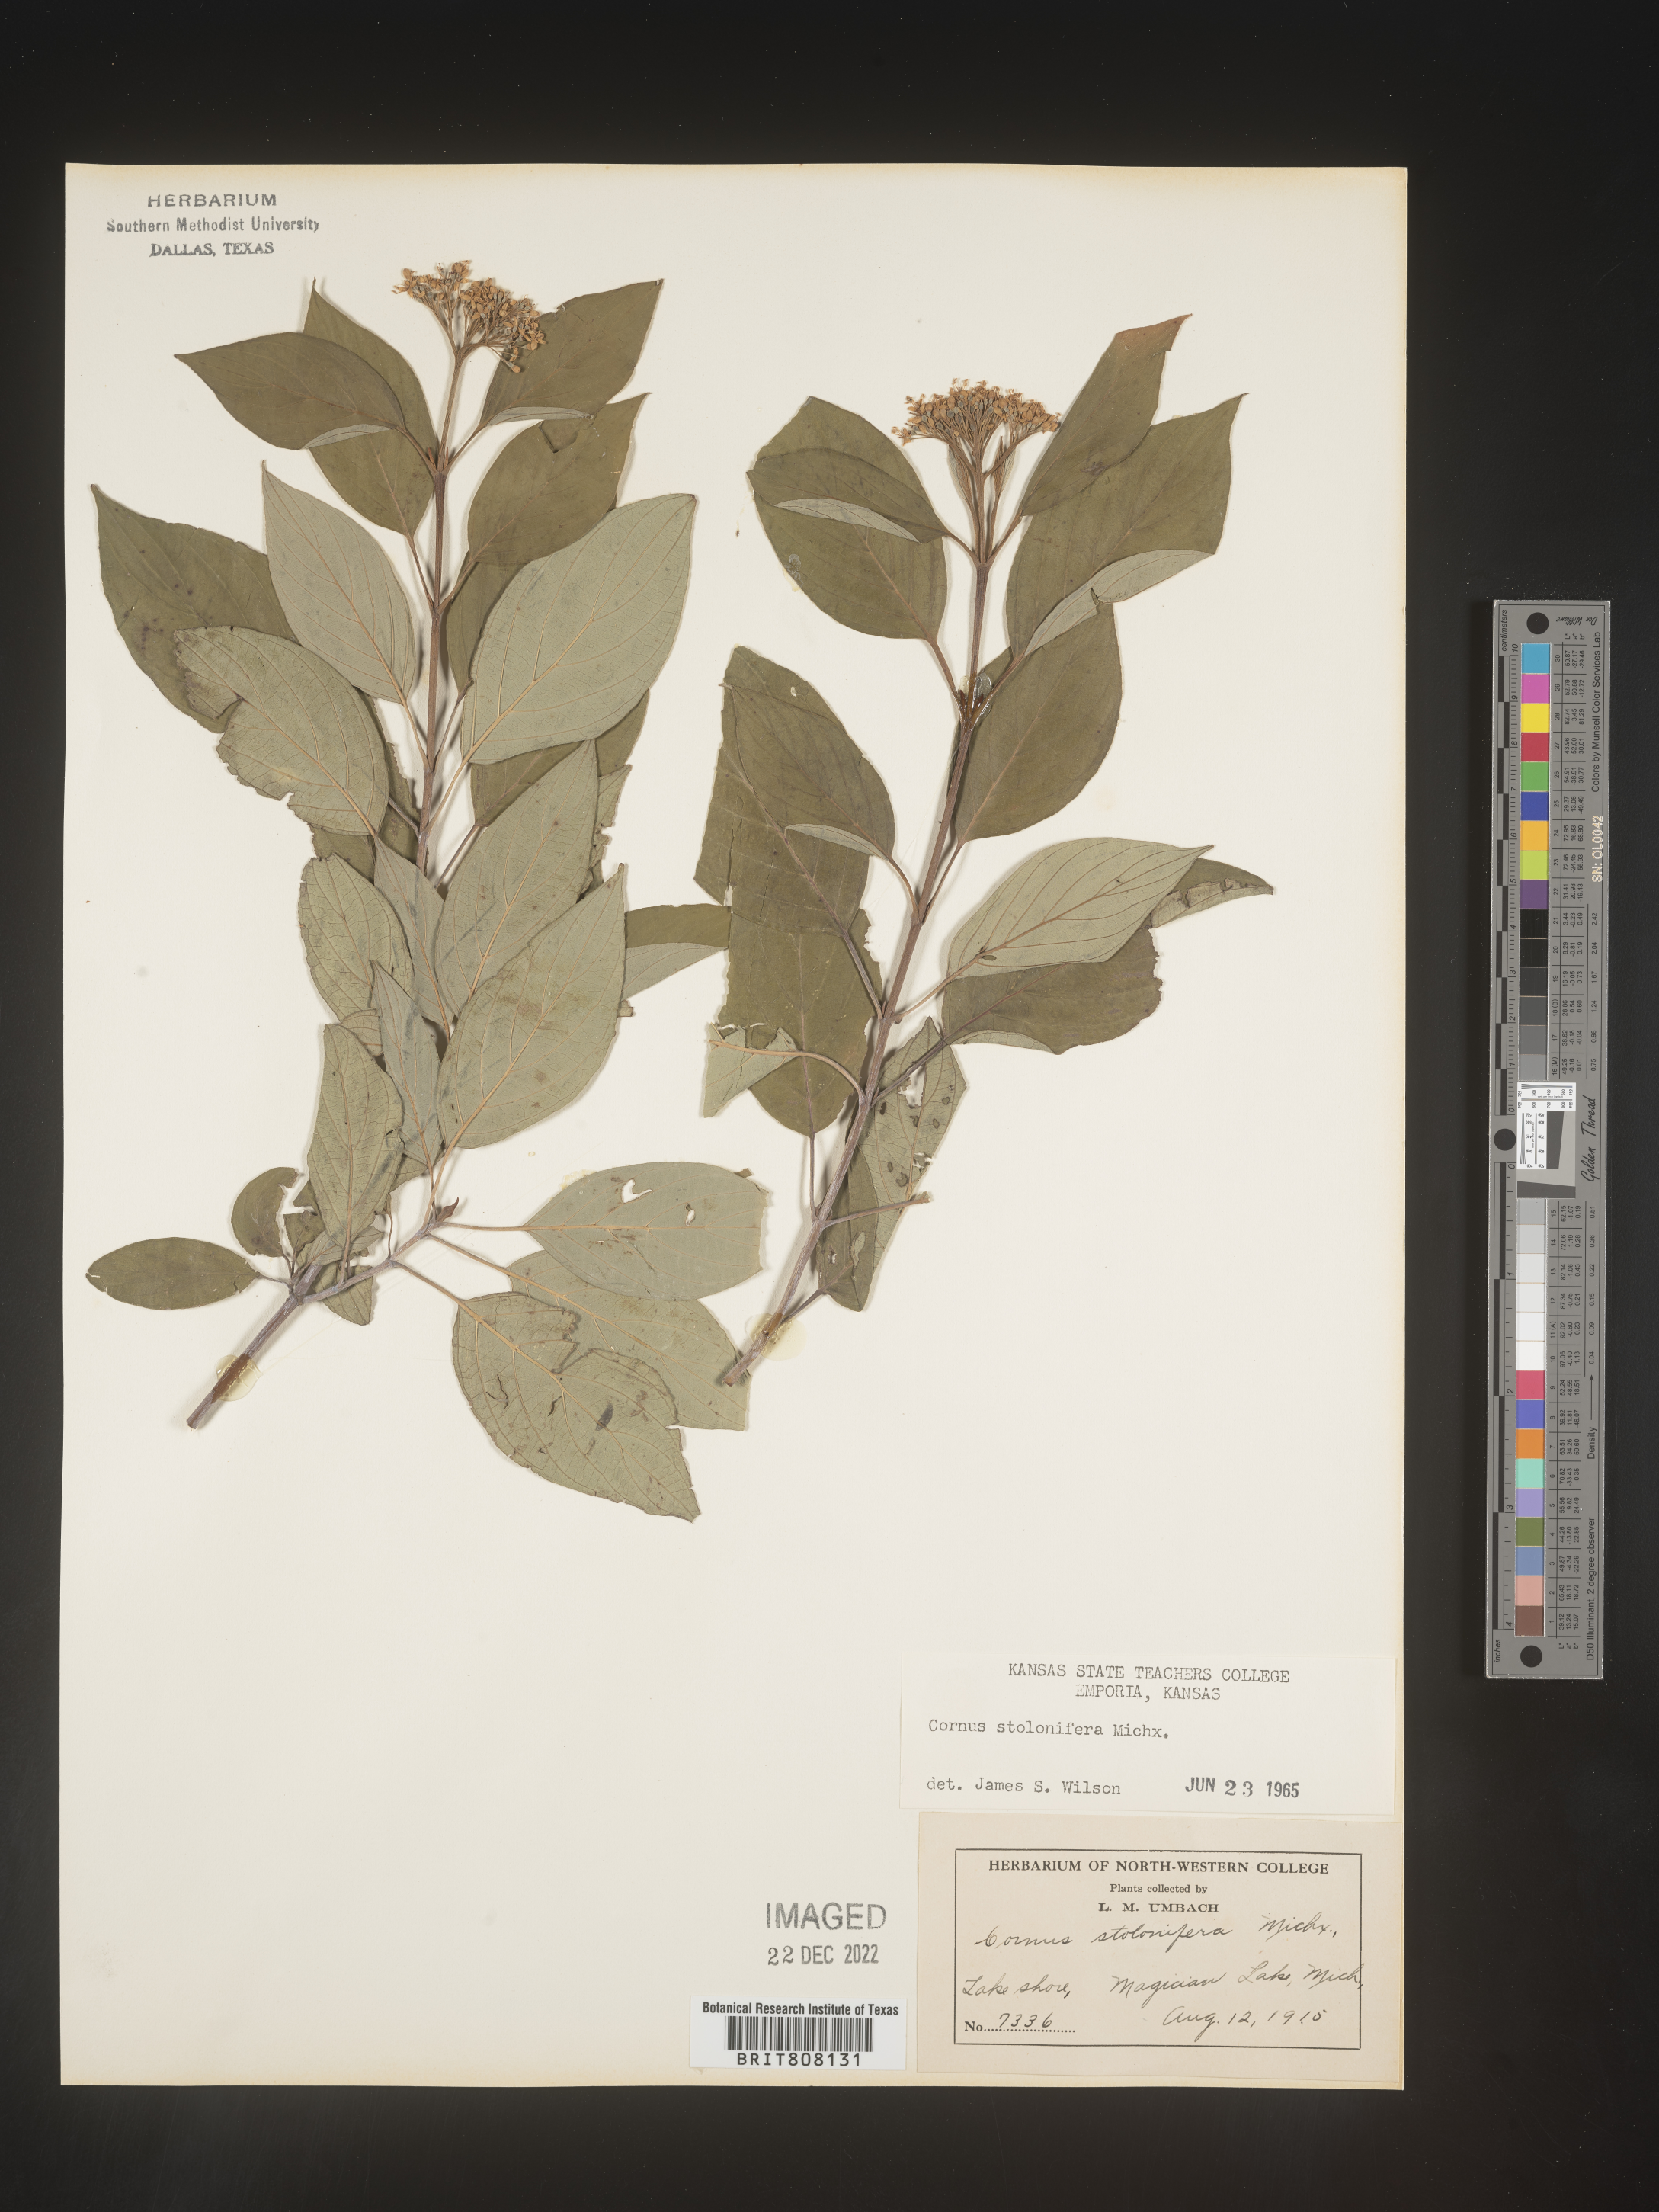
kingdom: Plantae
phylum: Tracheophyta
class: Magnoliopsida
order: Cornales
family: Cornaceae
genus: Cornus
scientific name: Cornus sericea
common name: Red-osier dogwood
